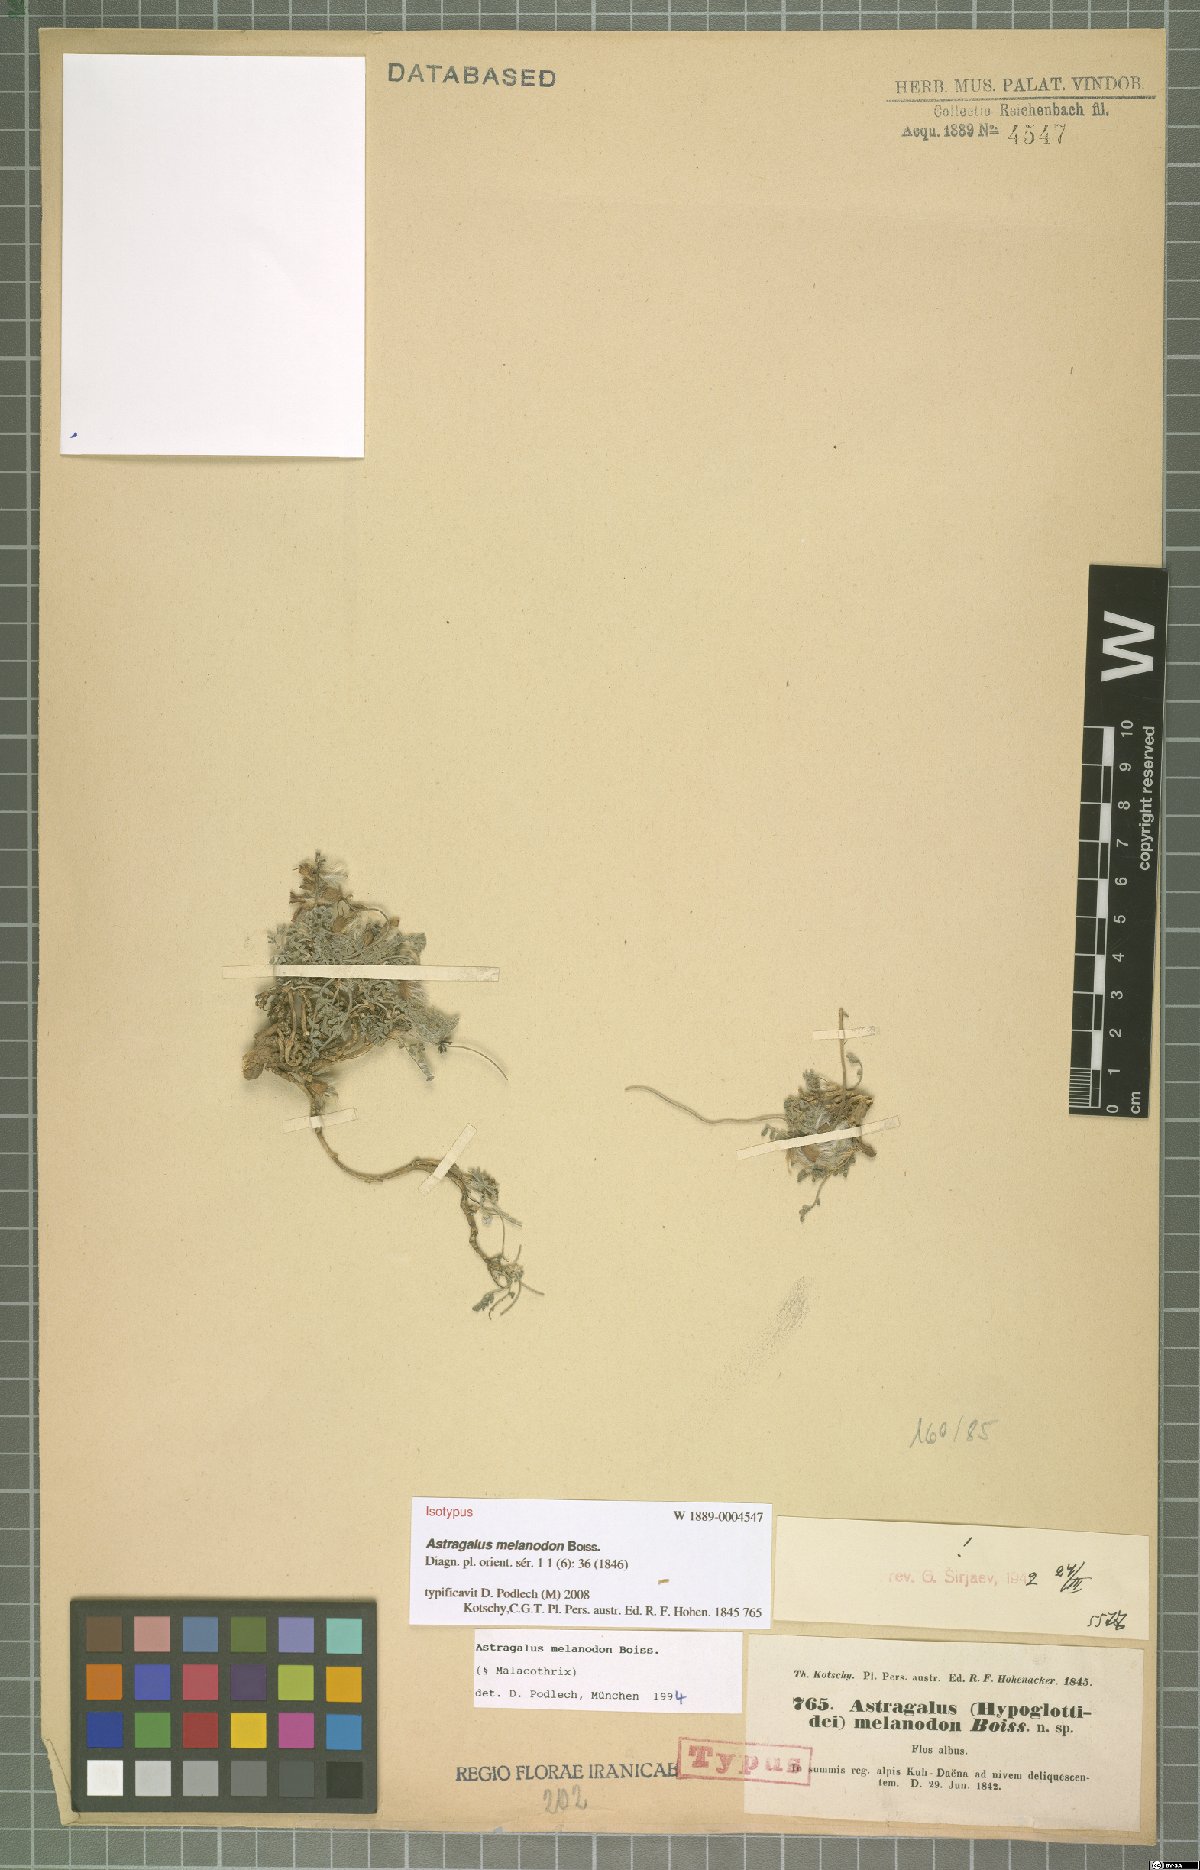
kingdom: Plantae
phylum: Tracheophyta
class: Magnoliopsida
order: Fabales
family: Fabaceae
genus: Astragalus
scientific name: Astragalus melanodon
